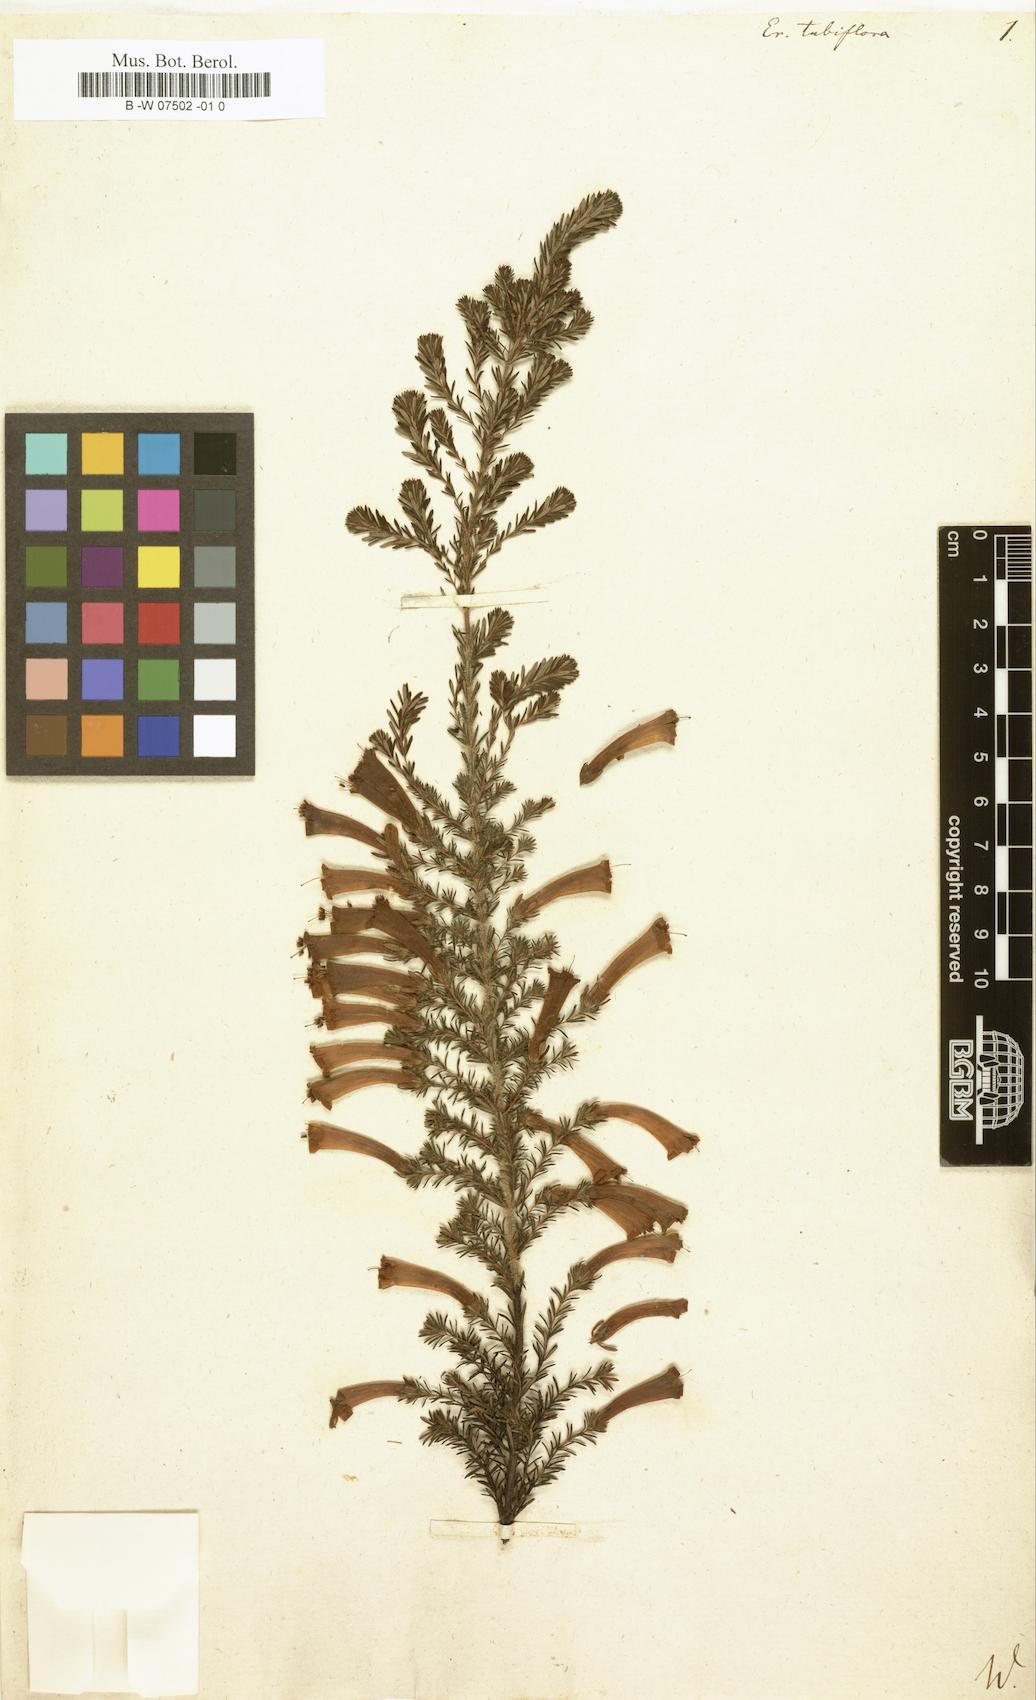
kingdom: Plantae
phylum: Tracheophyta
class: Magnoliopsida
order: Ericales
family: Ericaceae
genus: Erica
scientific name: Erica curviflora
